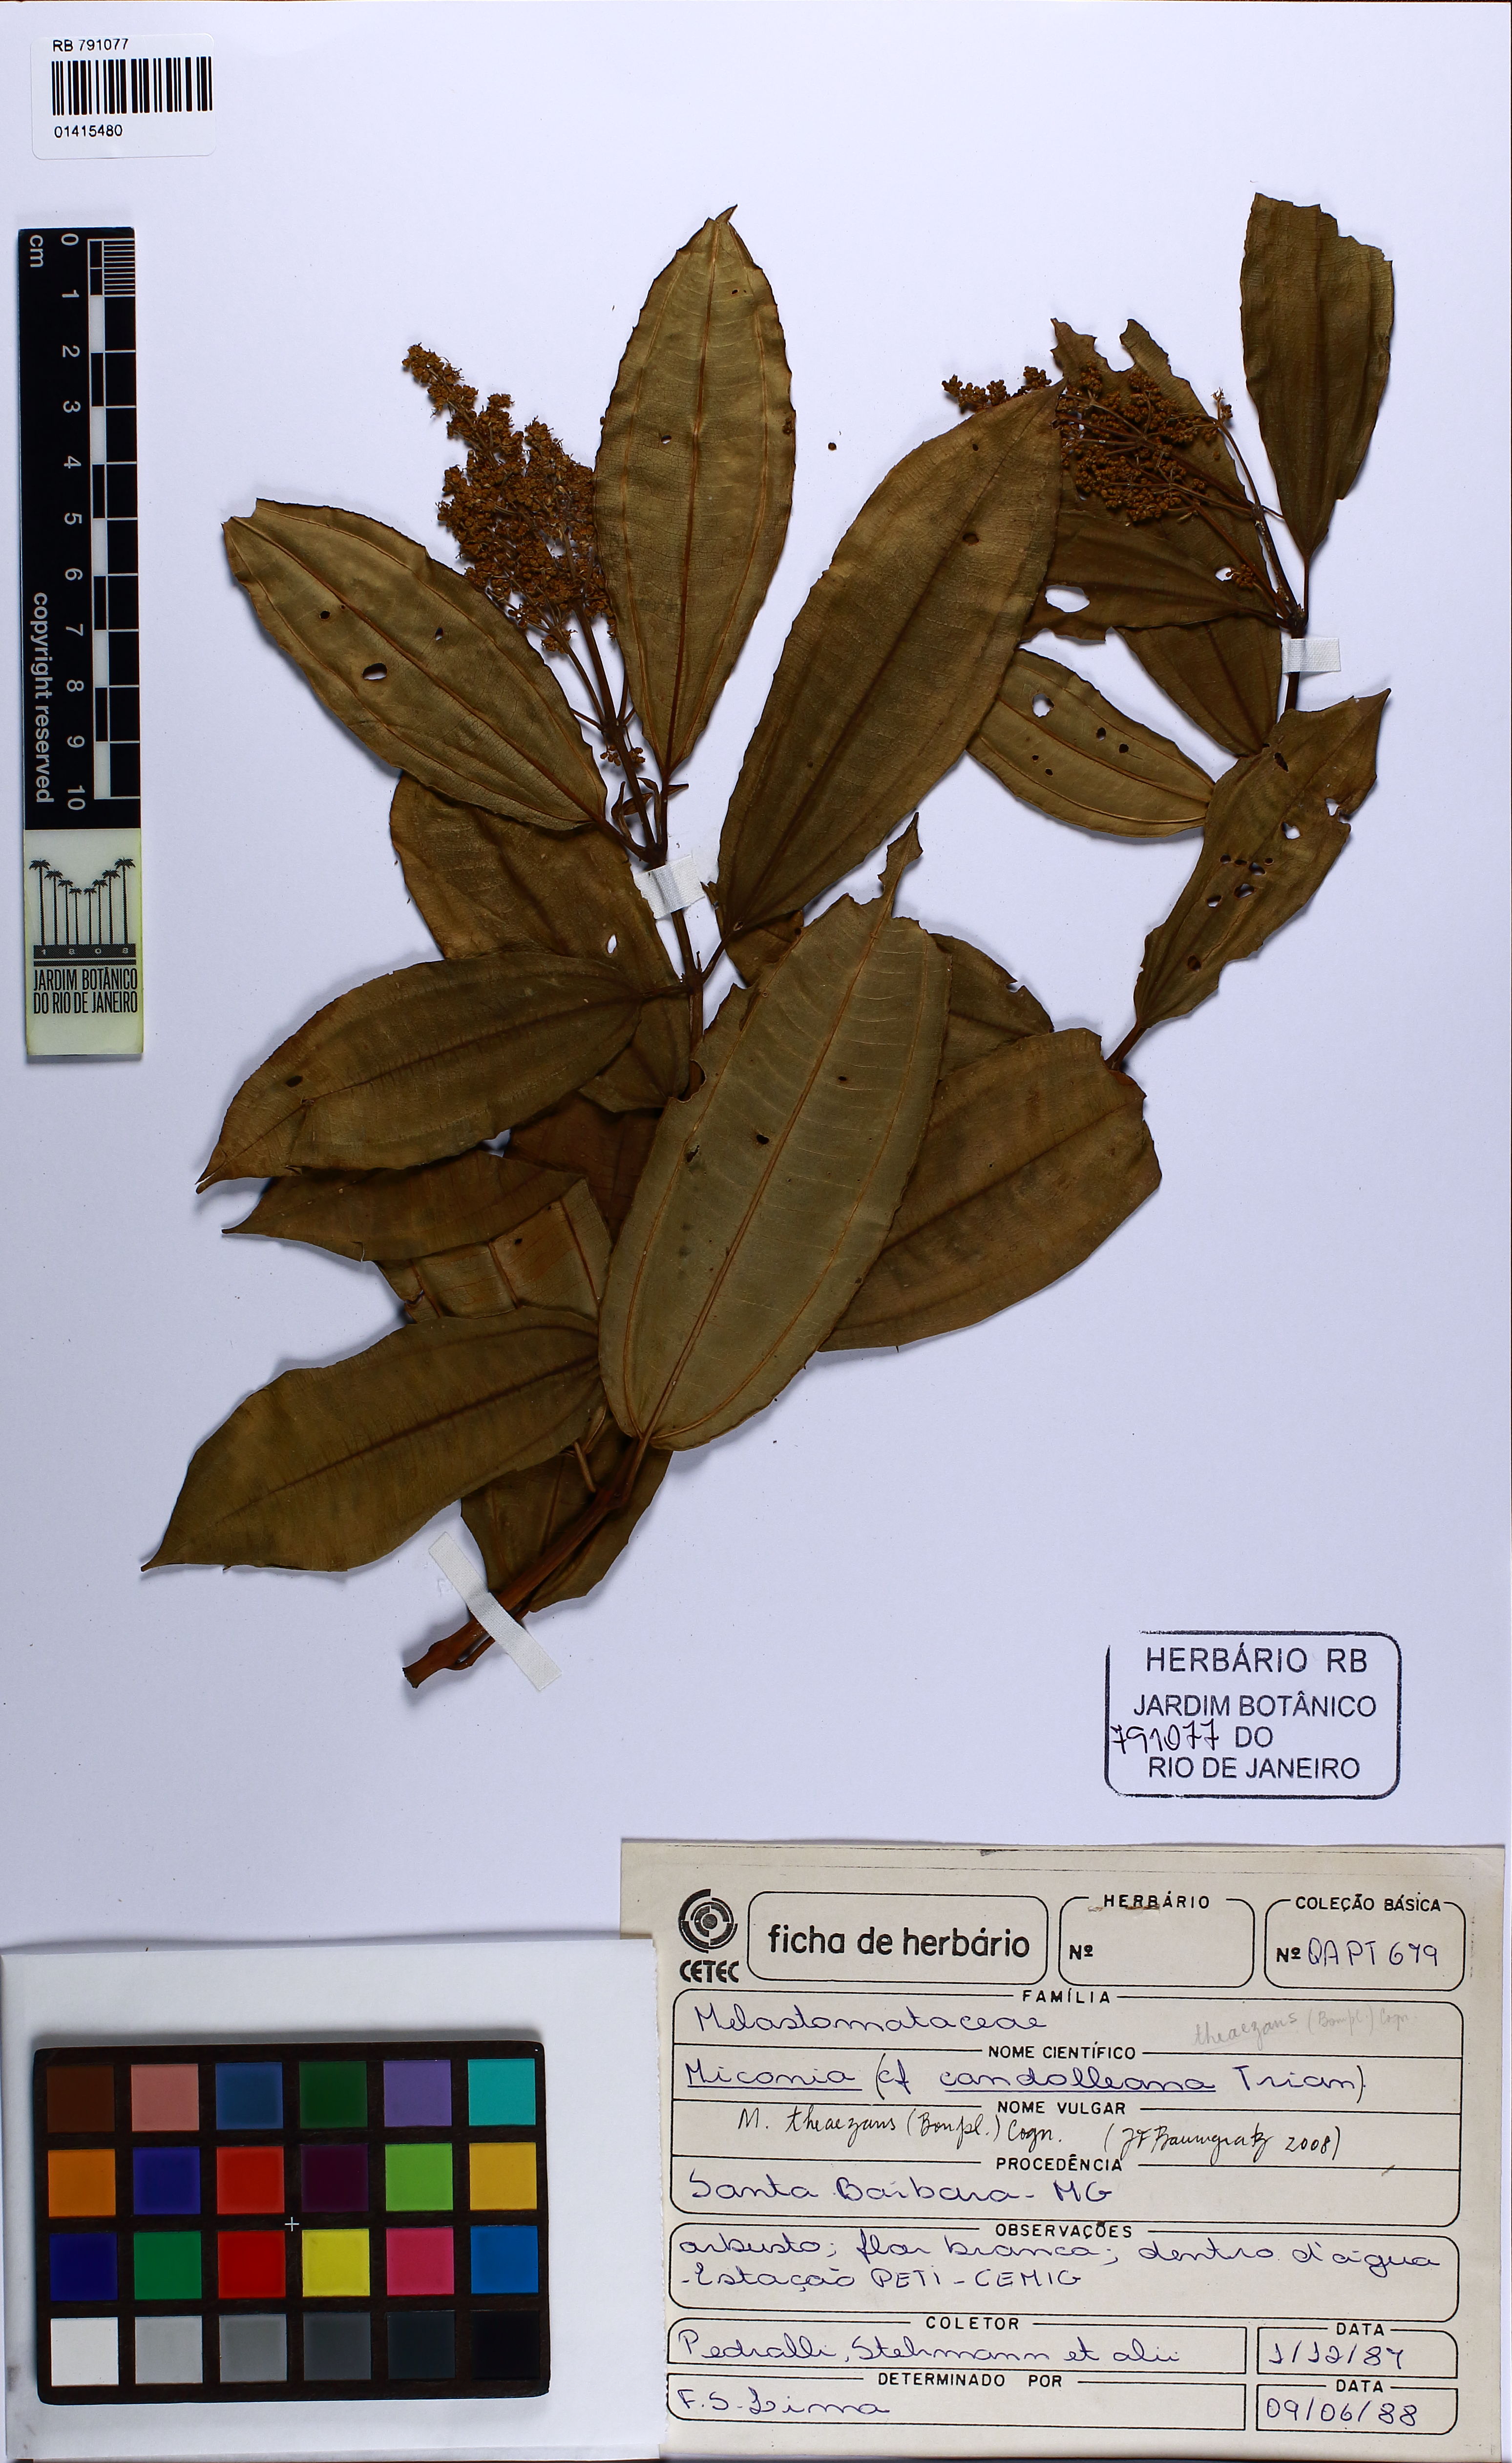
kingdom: Plantae
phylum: Tracheophyta
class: Magnoliopsida
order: Myrtales
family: Melastomataceae
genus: Miconia
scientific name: Miconia theizans
